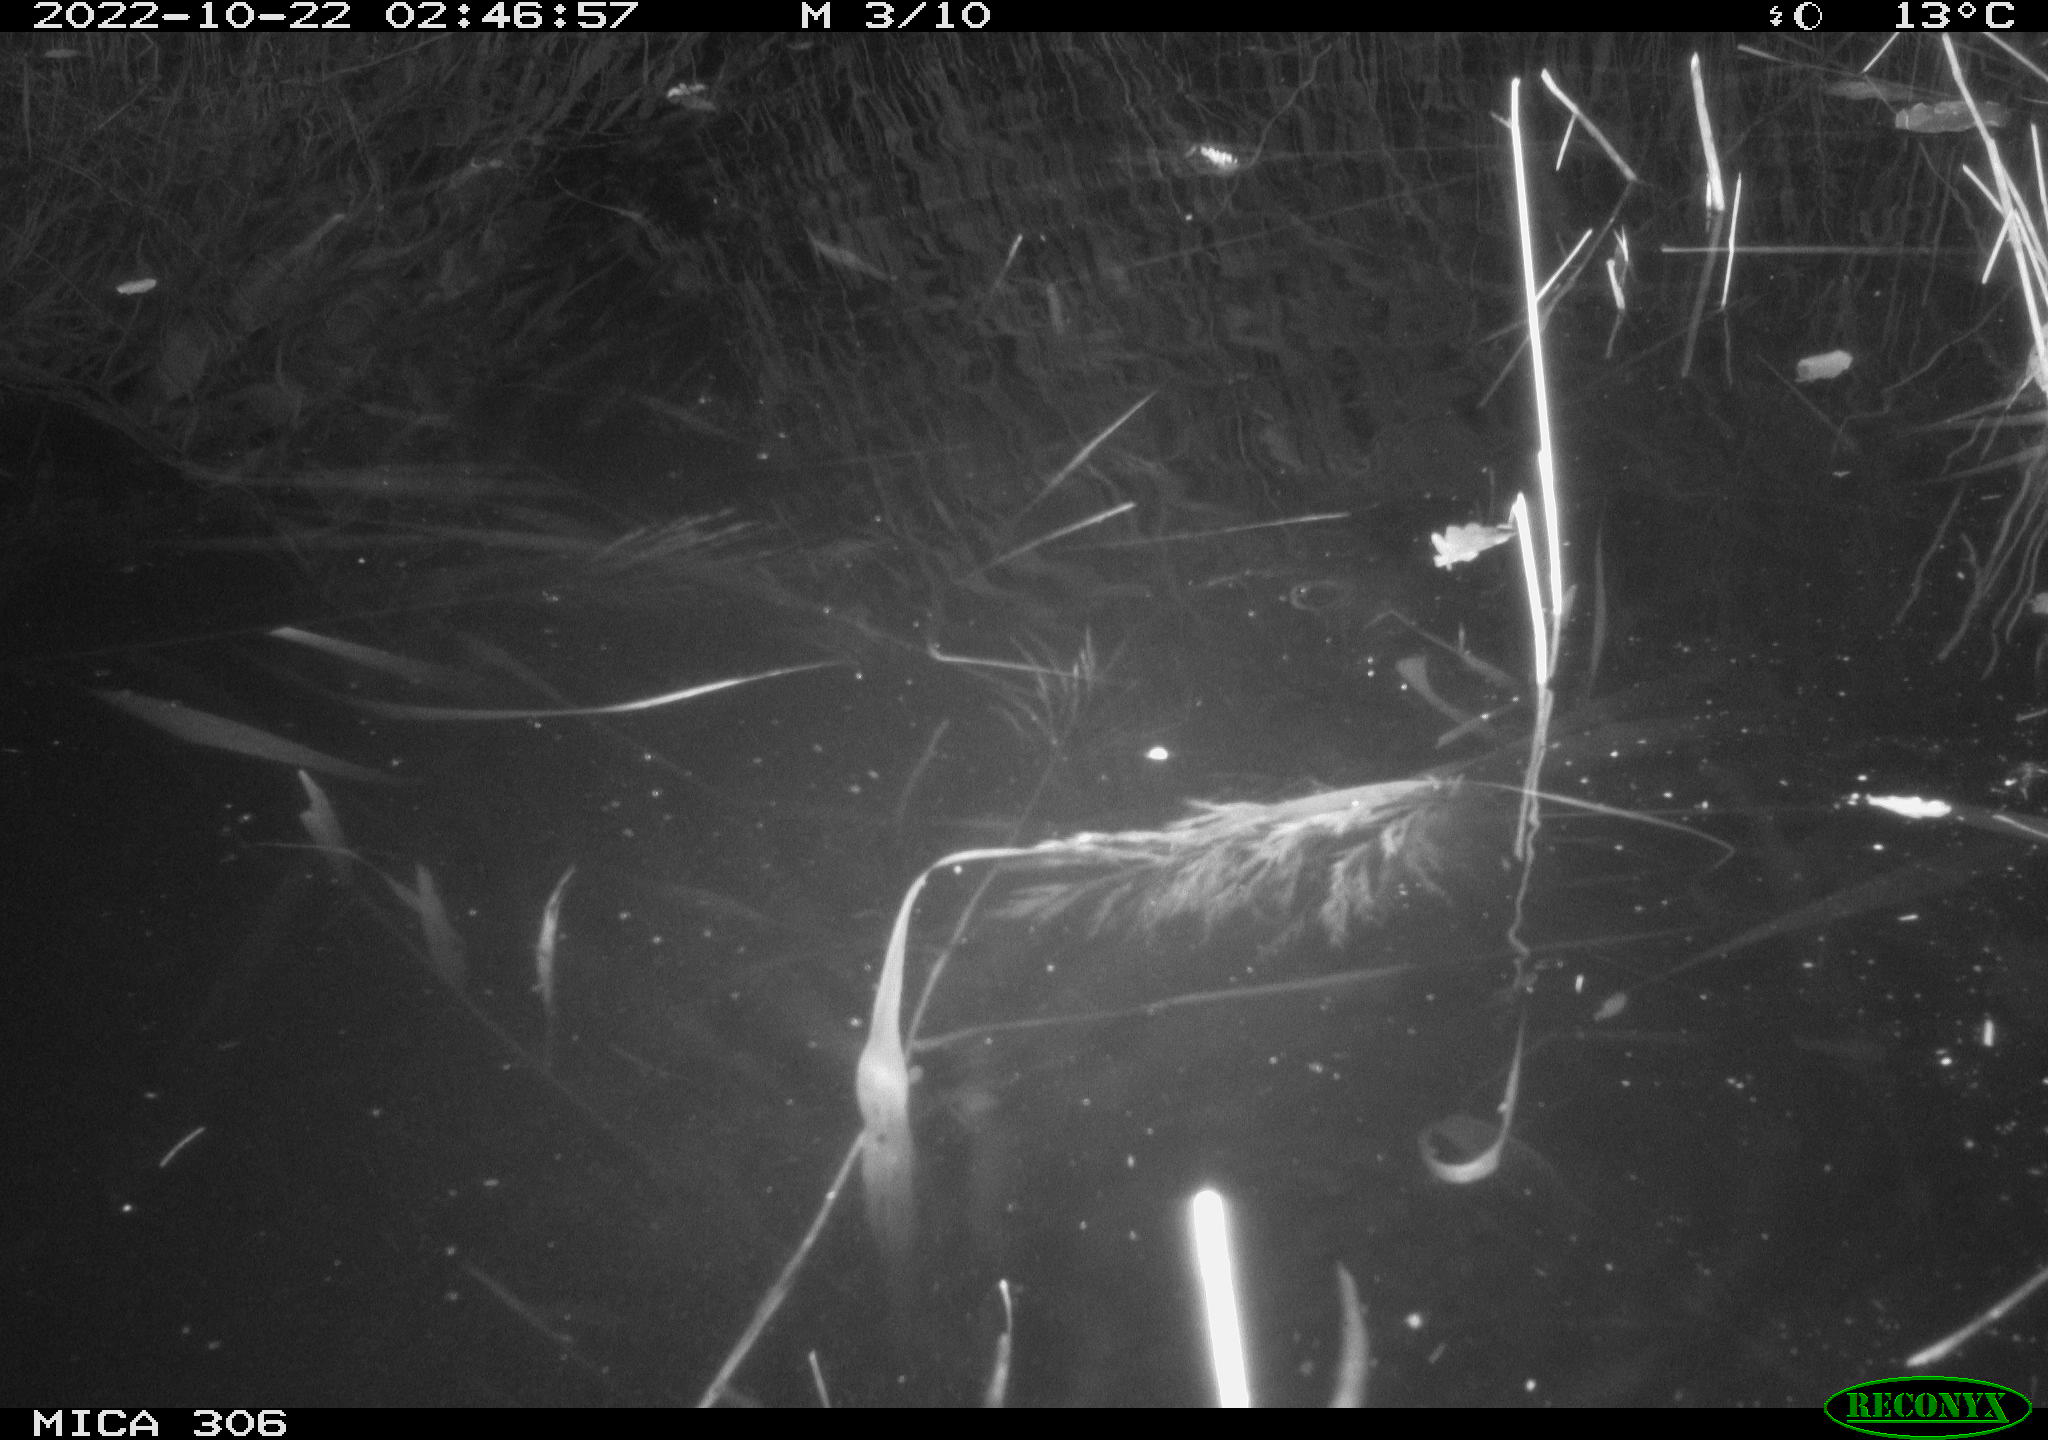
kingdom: Animalia
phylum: Chordata
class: Mammalia
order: Rodentia
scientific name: Rodentia
